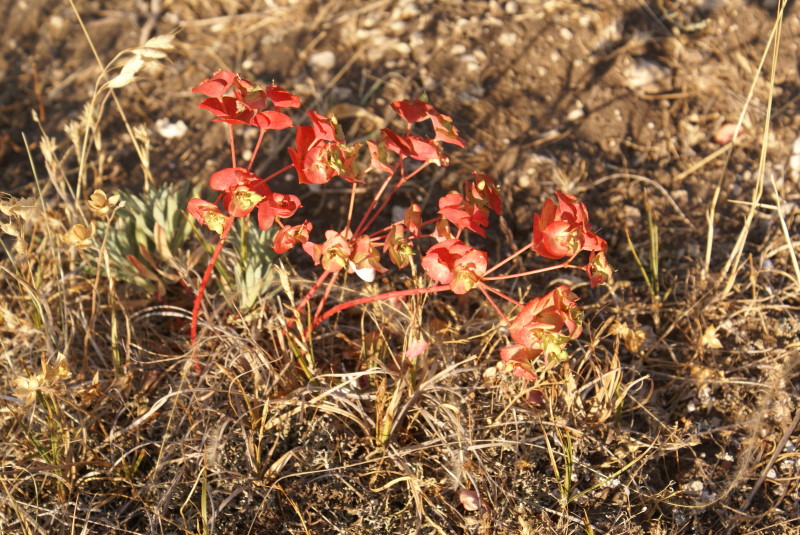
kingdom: Plantae
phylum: Tracheophyta
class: Magnoliopsida
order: Malpighiales
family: Euphorbiaceae
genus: Euphorbia
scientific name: Euphorbia
